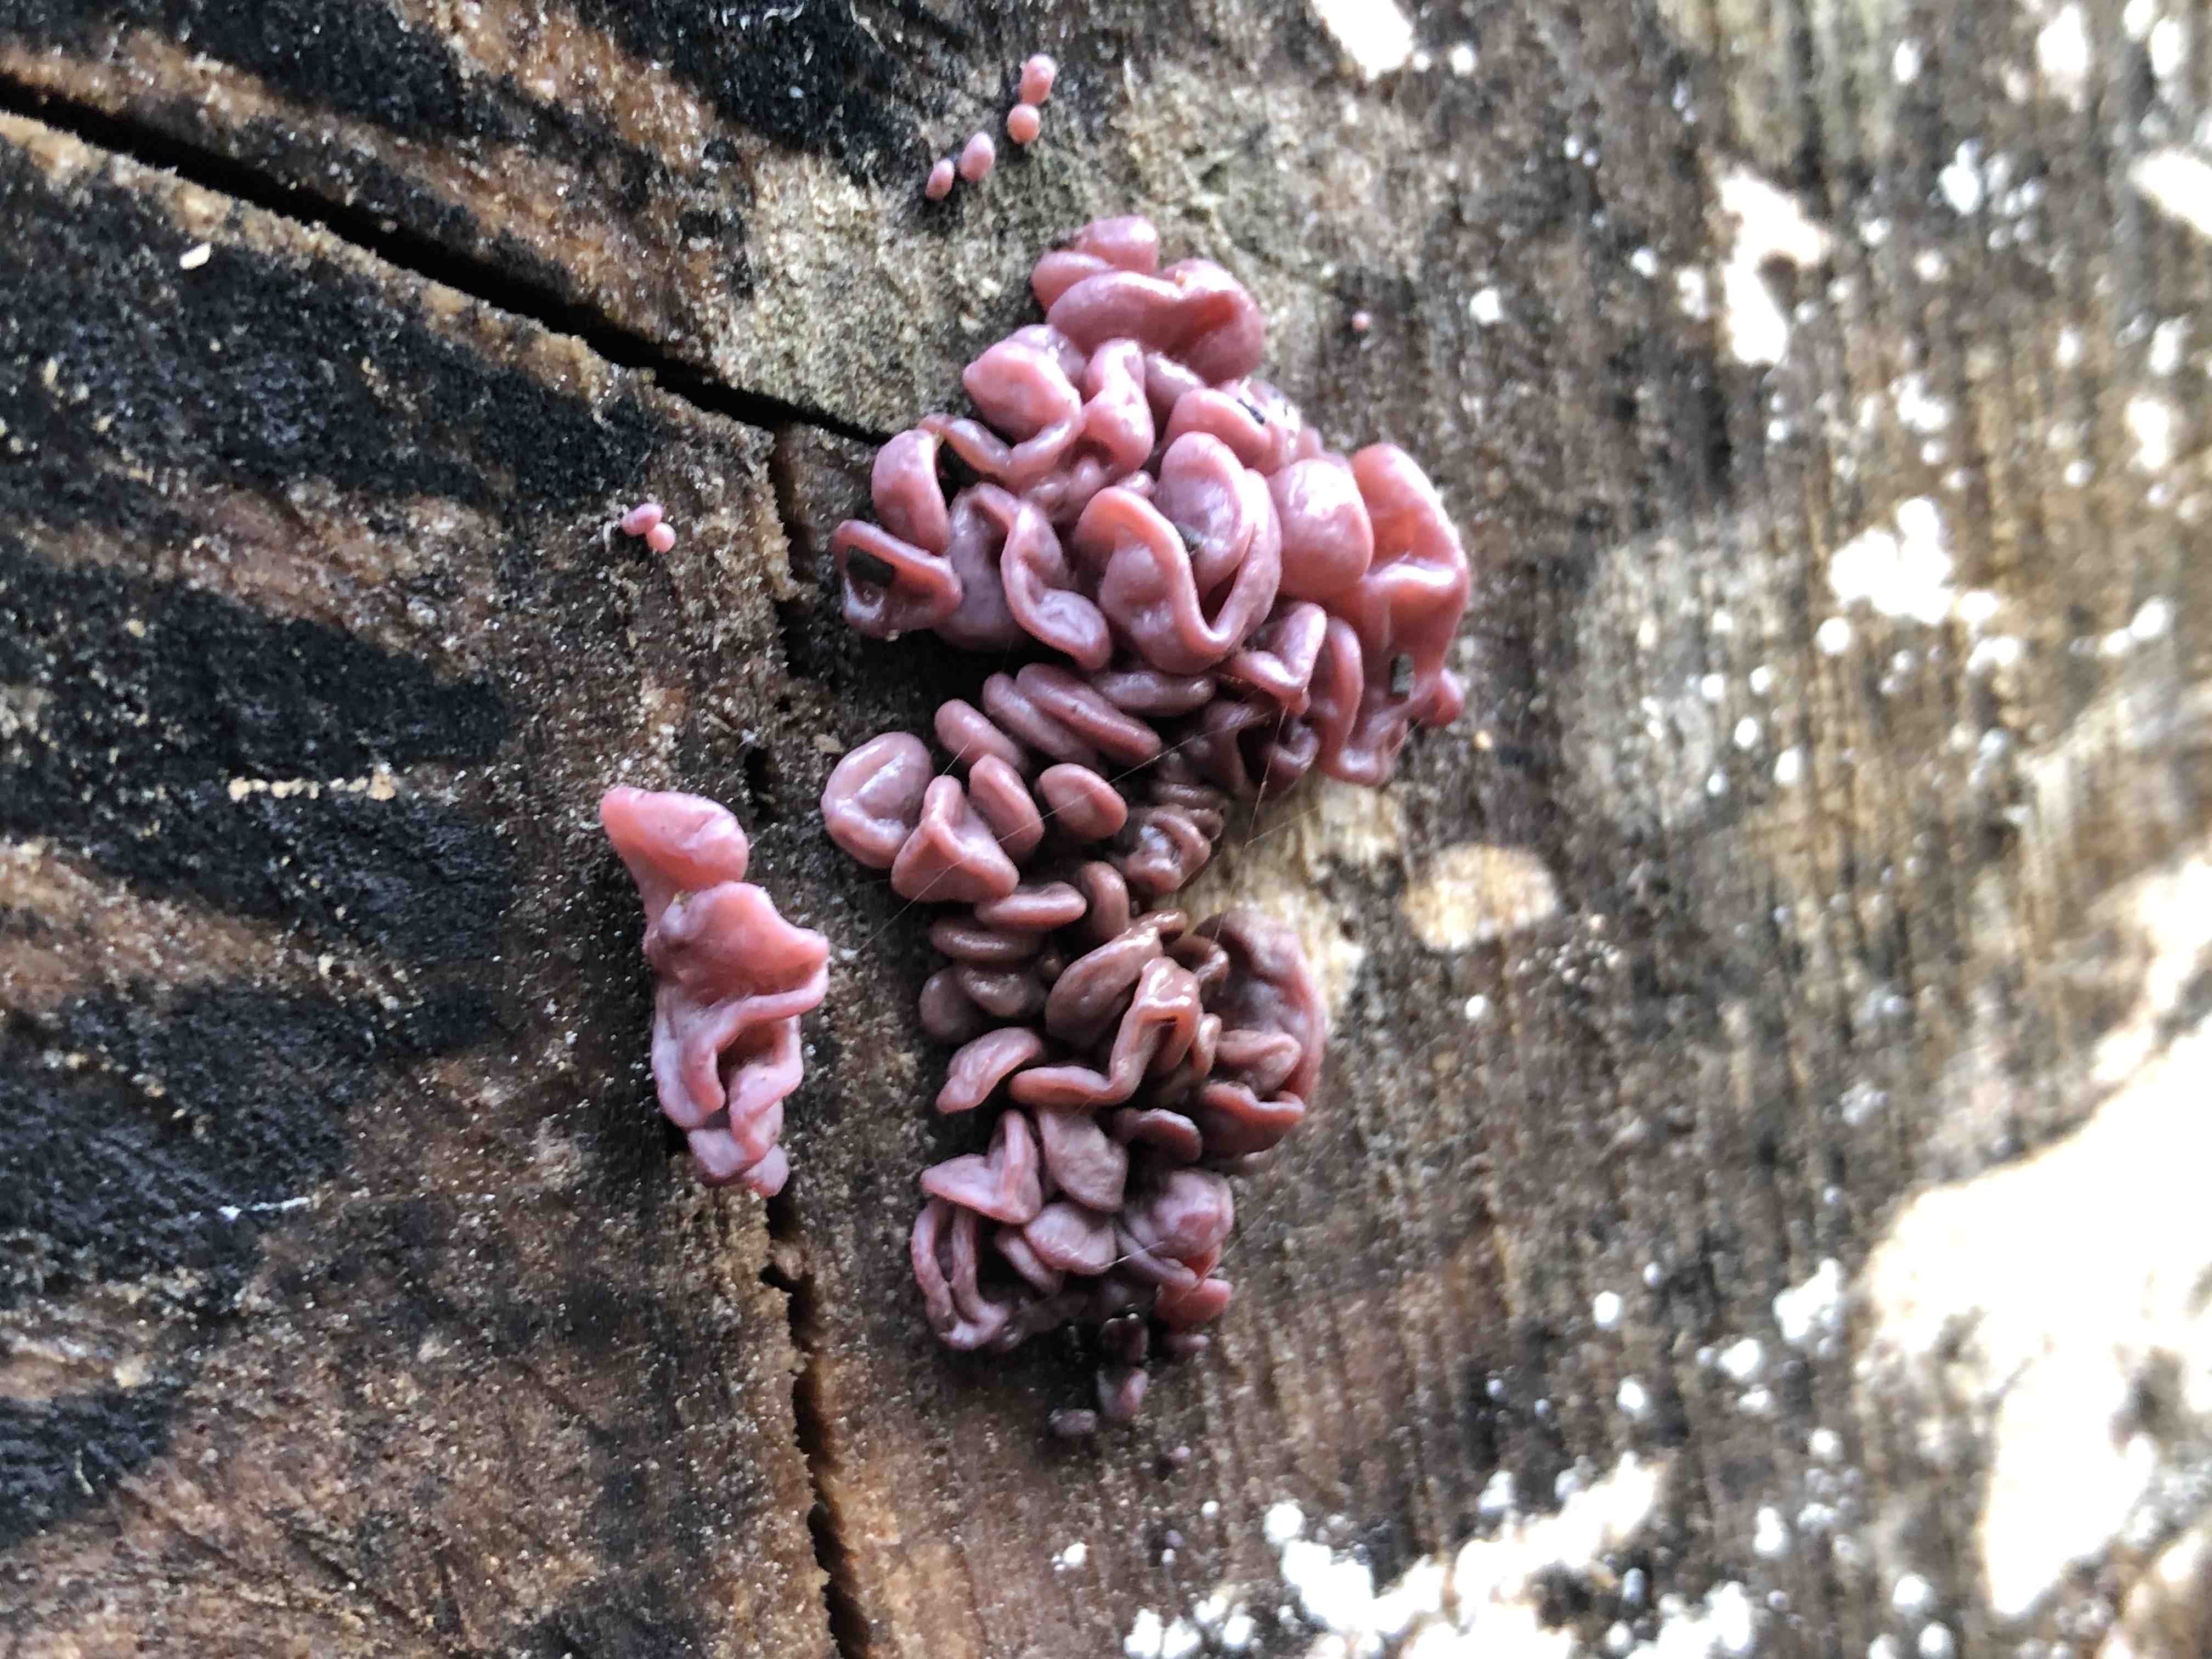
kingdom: Fungi
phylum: Ascomycota
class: Leotiomycetes
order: Helotiales
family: Gelatinodiscaceae
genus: Ascocoryne
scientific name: Ascocoryne sarcoides
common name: rødlilla sejskive
